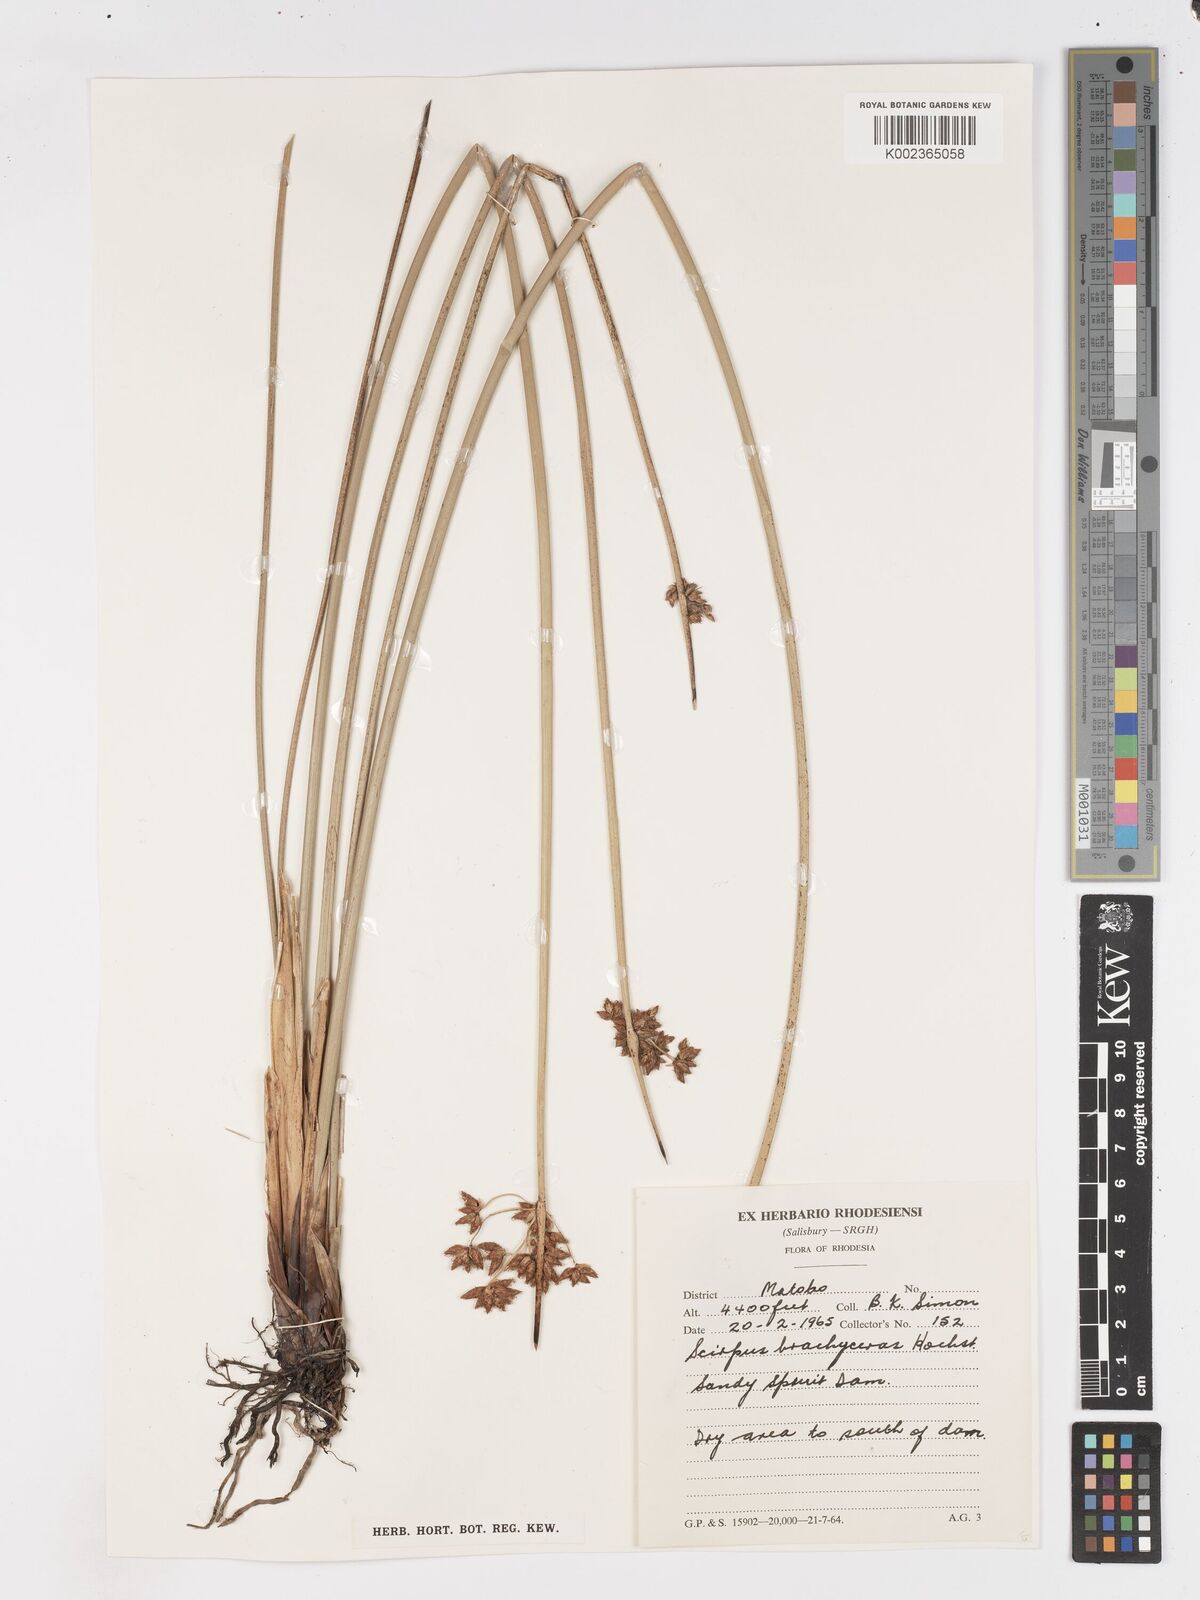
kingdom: Plantae
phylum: Tracheophyta
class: Liliopsida
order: Poales
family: Cyperaceae
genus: Schoenoplectiella
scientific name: Schoenoplectiella corymbosa
